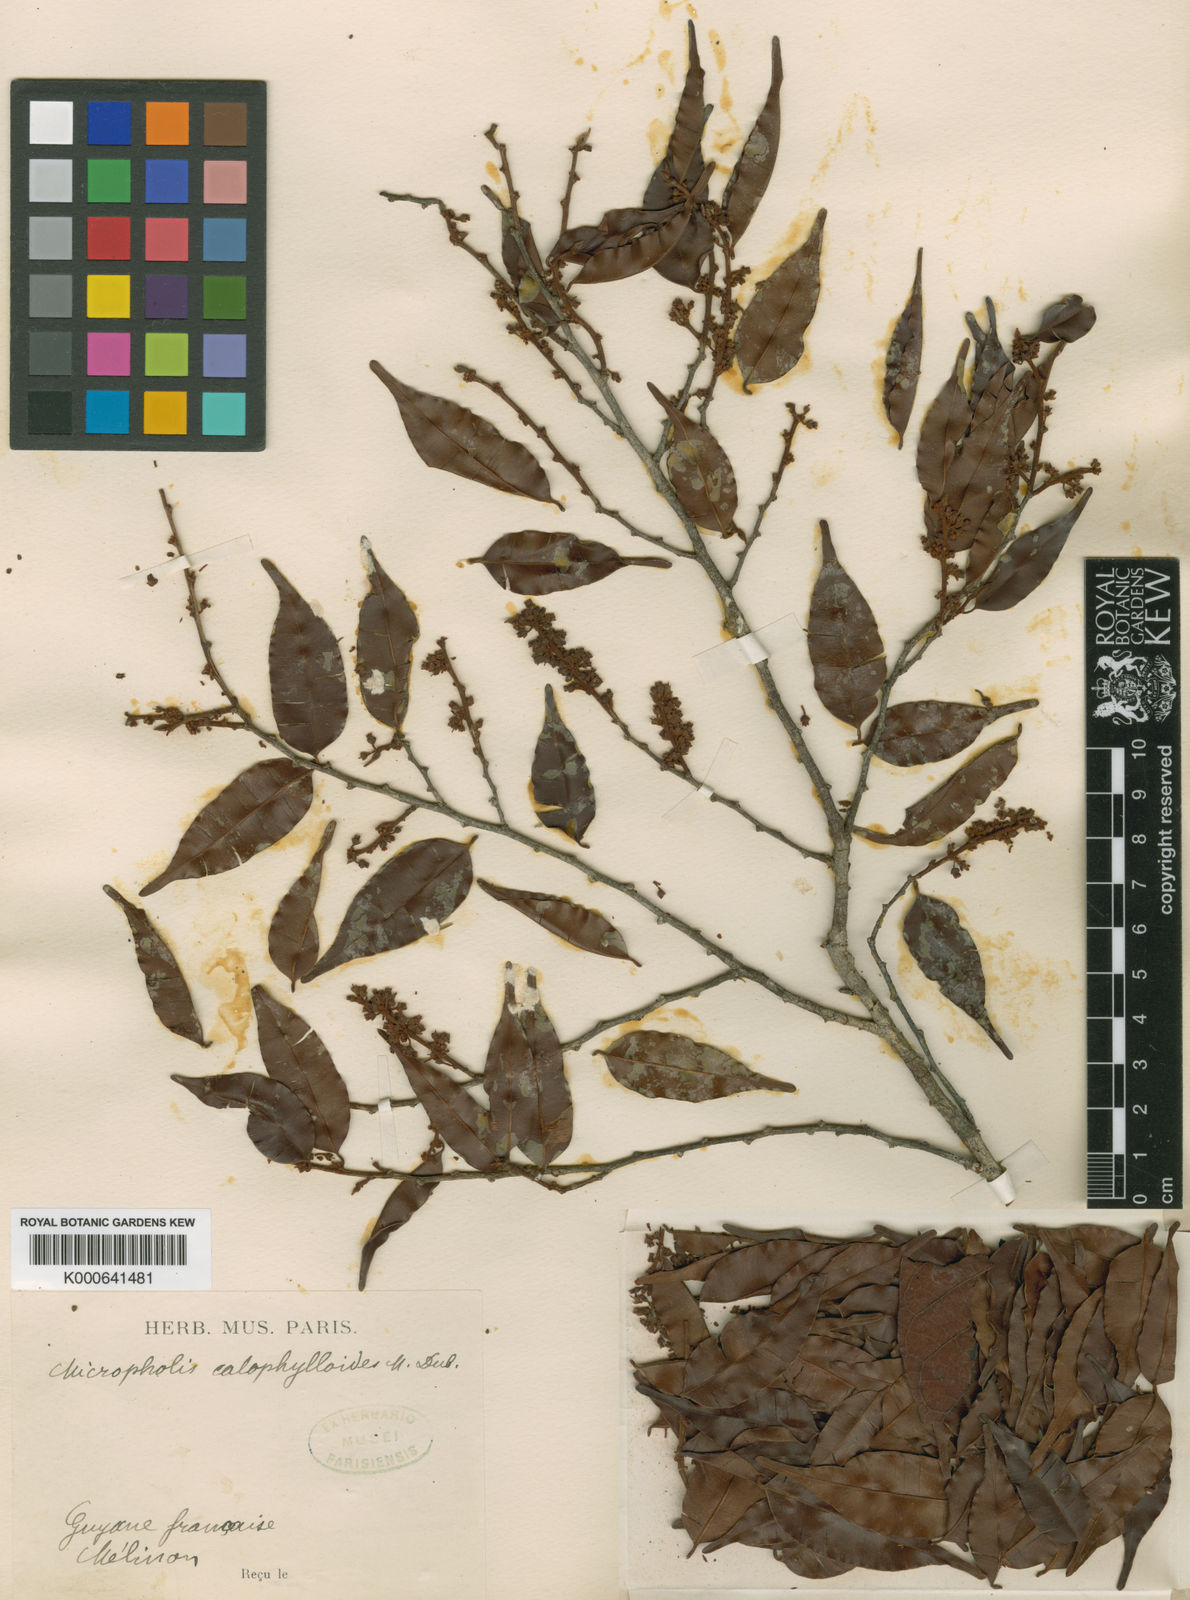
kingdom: Plantae
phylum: Tracheophyta
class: Magnoliopsida
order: Ericales
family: Sapotaceae
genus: Micropholis
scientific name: Micropholis venulosa
